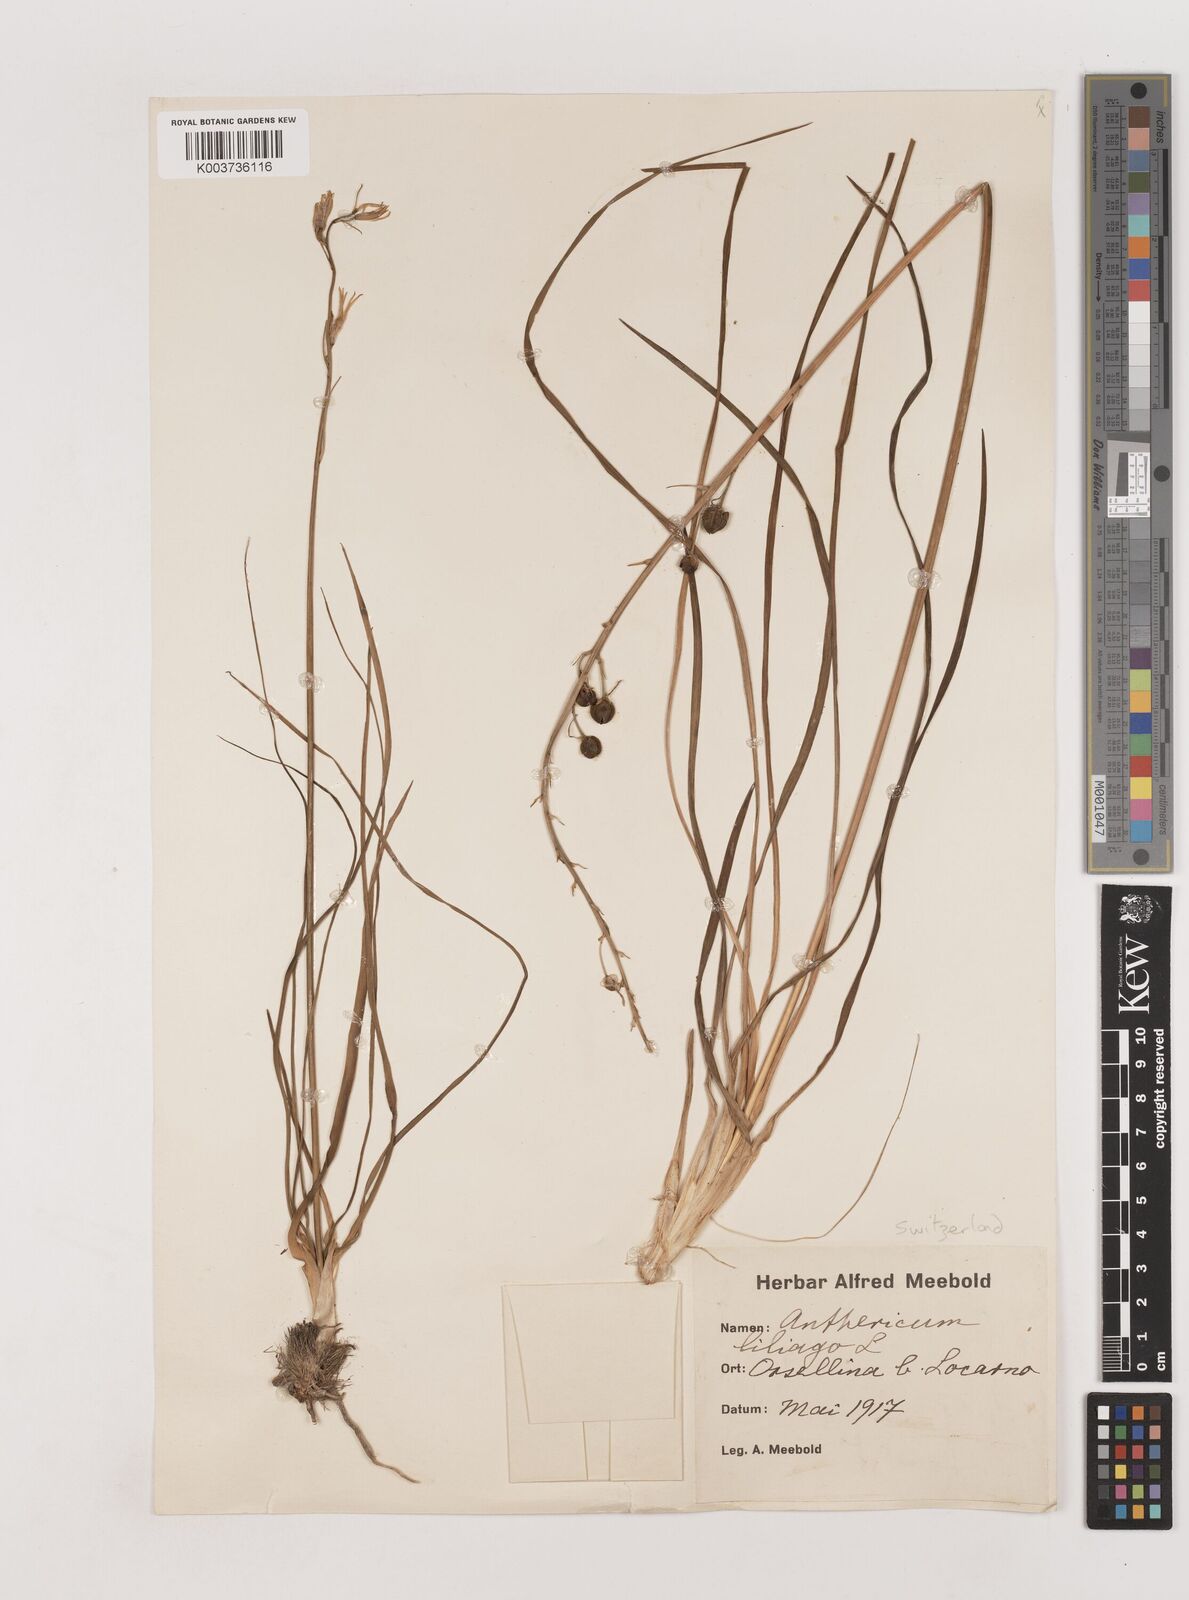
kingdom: Plantae
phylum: Tracheophyta
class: Liliopsida
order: Asparagales
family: Asparagaceae
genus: Anthericum
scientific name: Anthericum liliago
